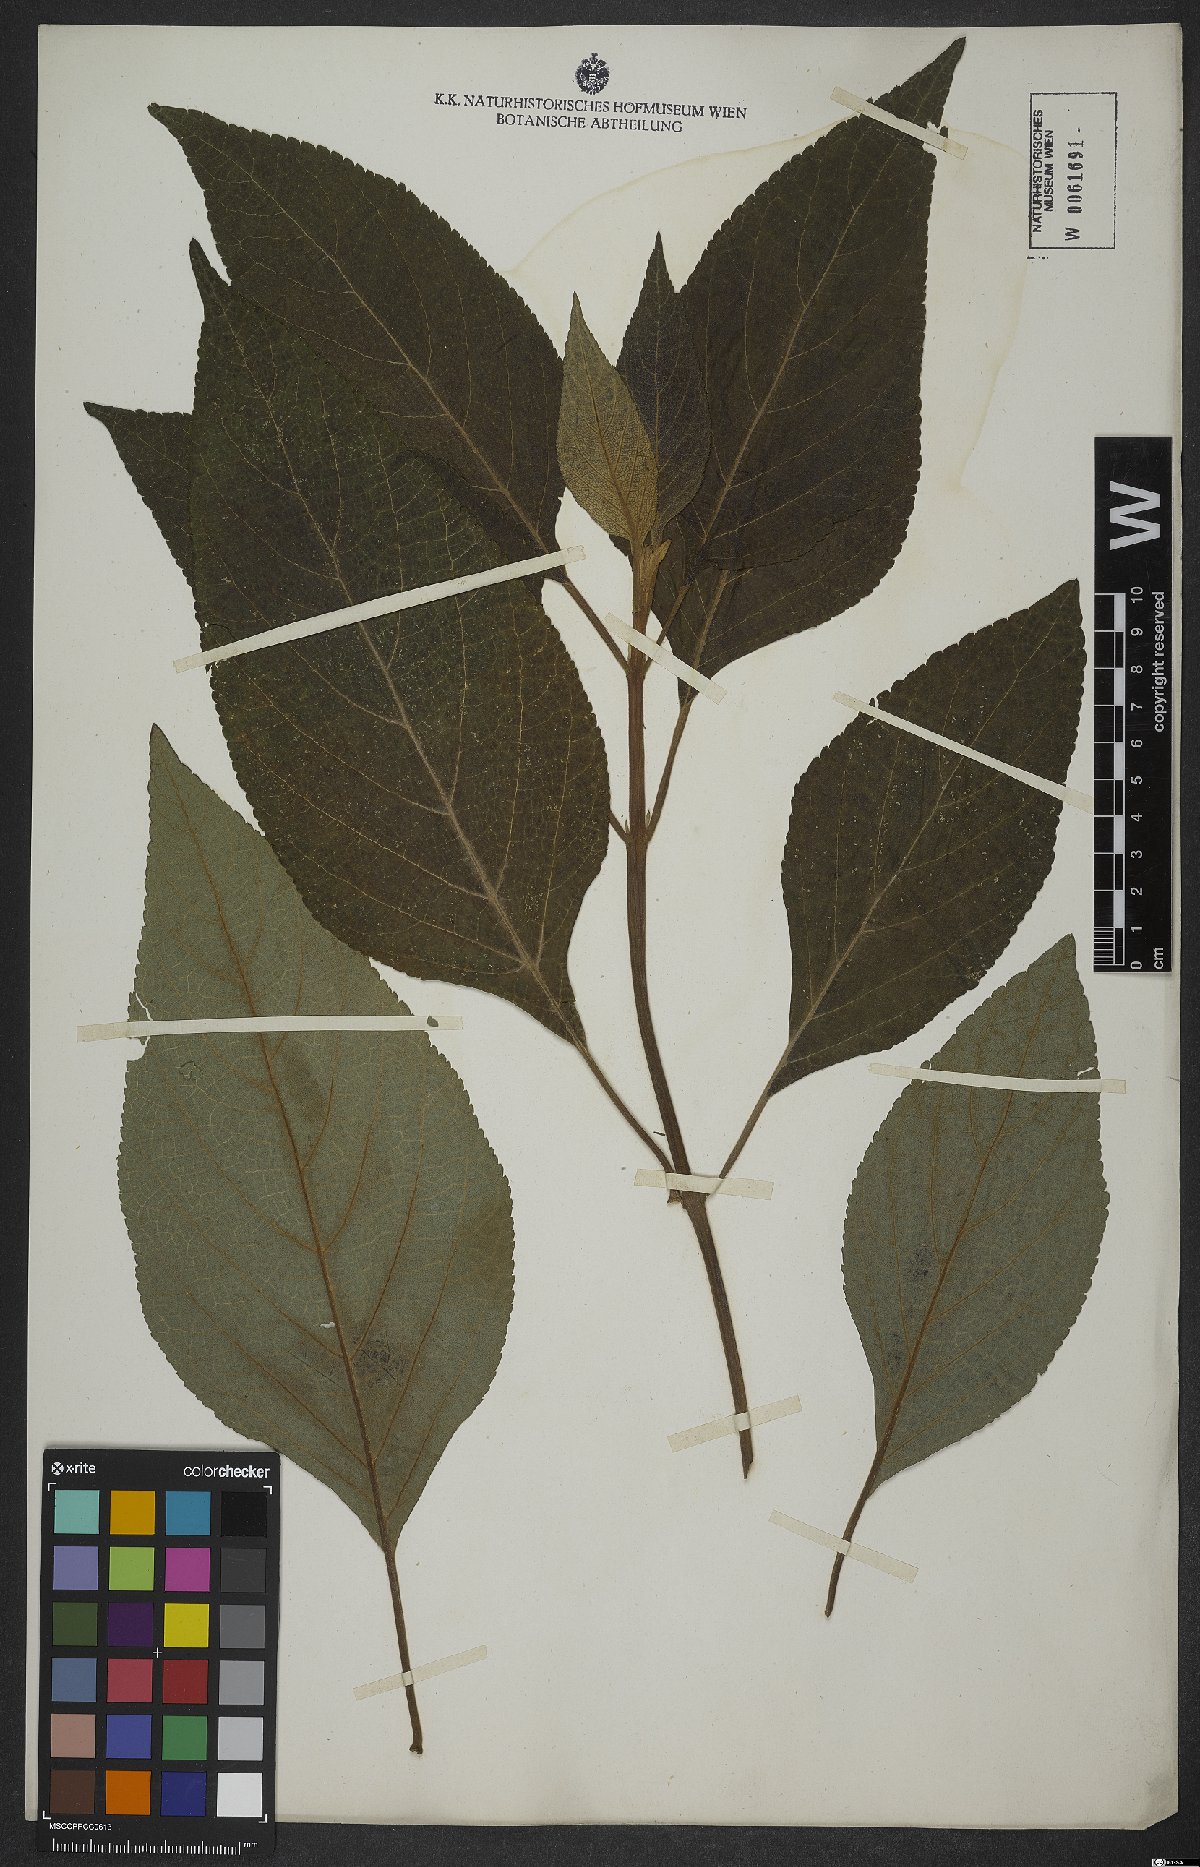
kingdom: Plantae
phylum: Tracheophyta
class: Magnoliopsida
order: Lamiales
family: Lamiaceae
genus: Salvia
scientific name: Salvia confertiflora
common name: Sabra-spike sage
